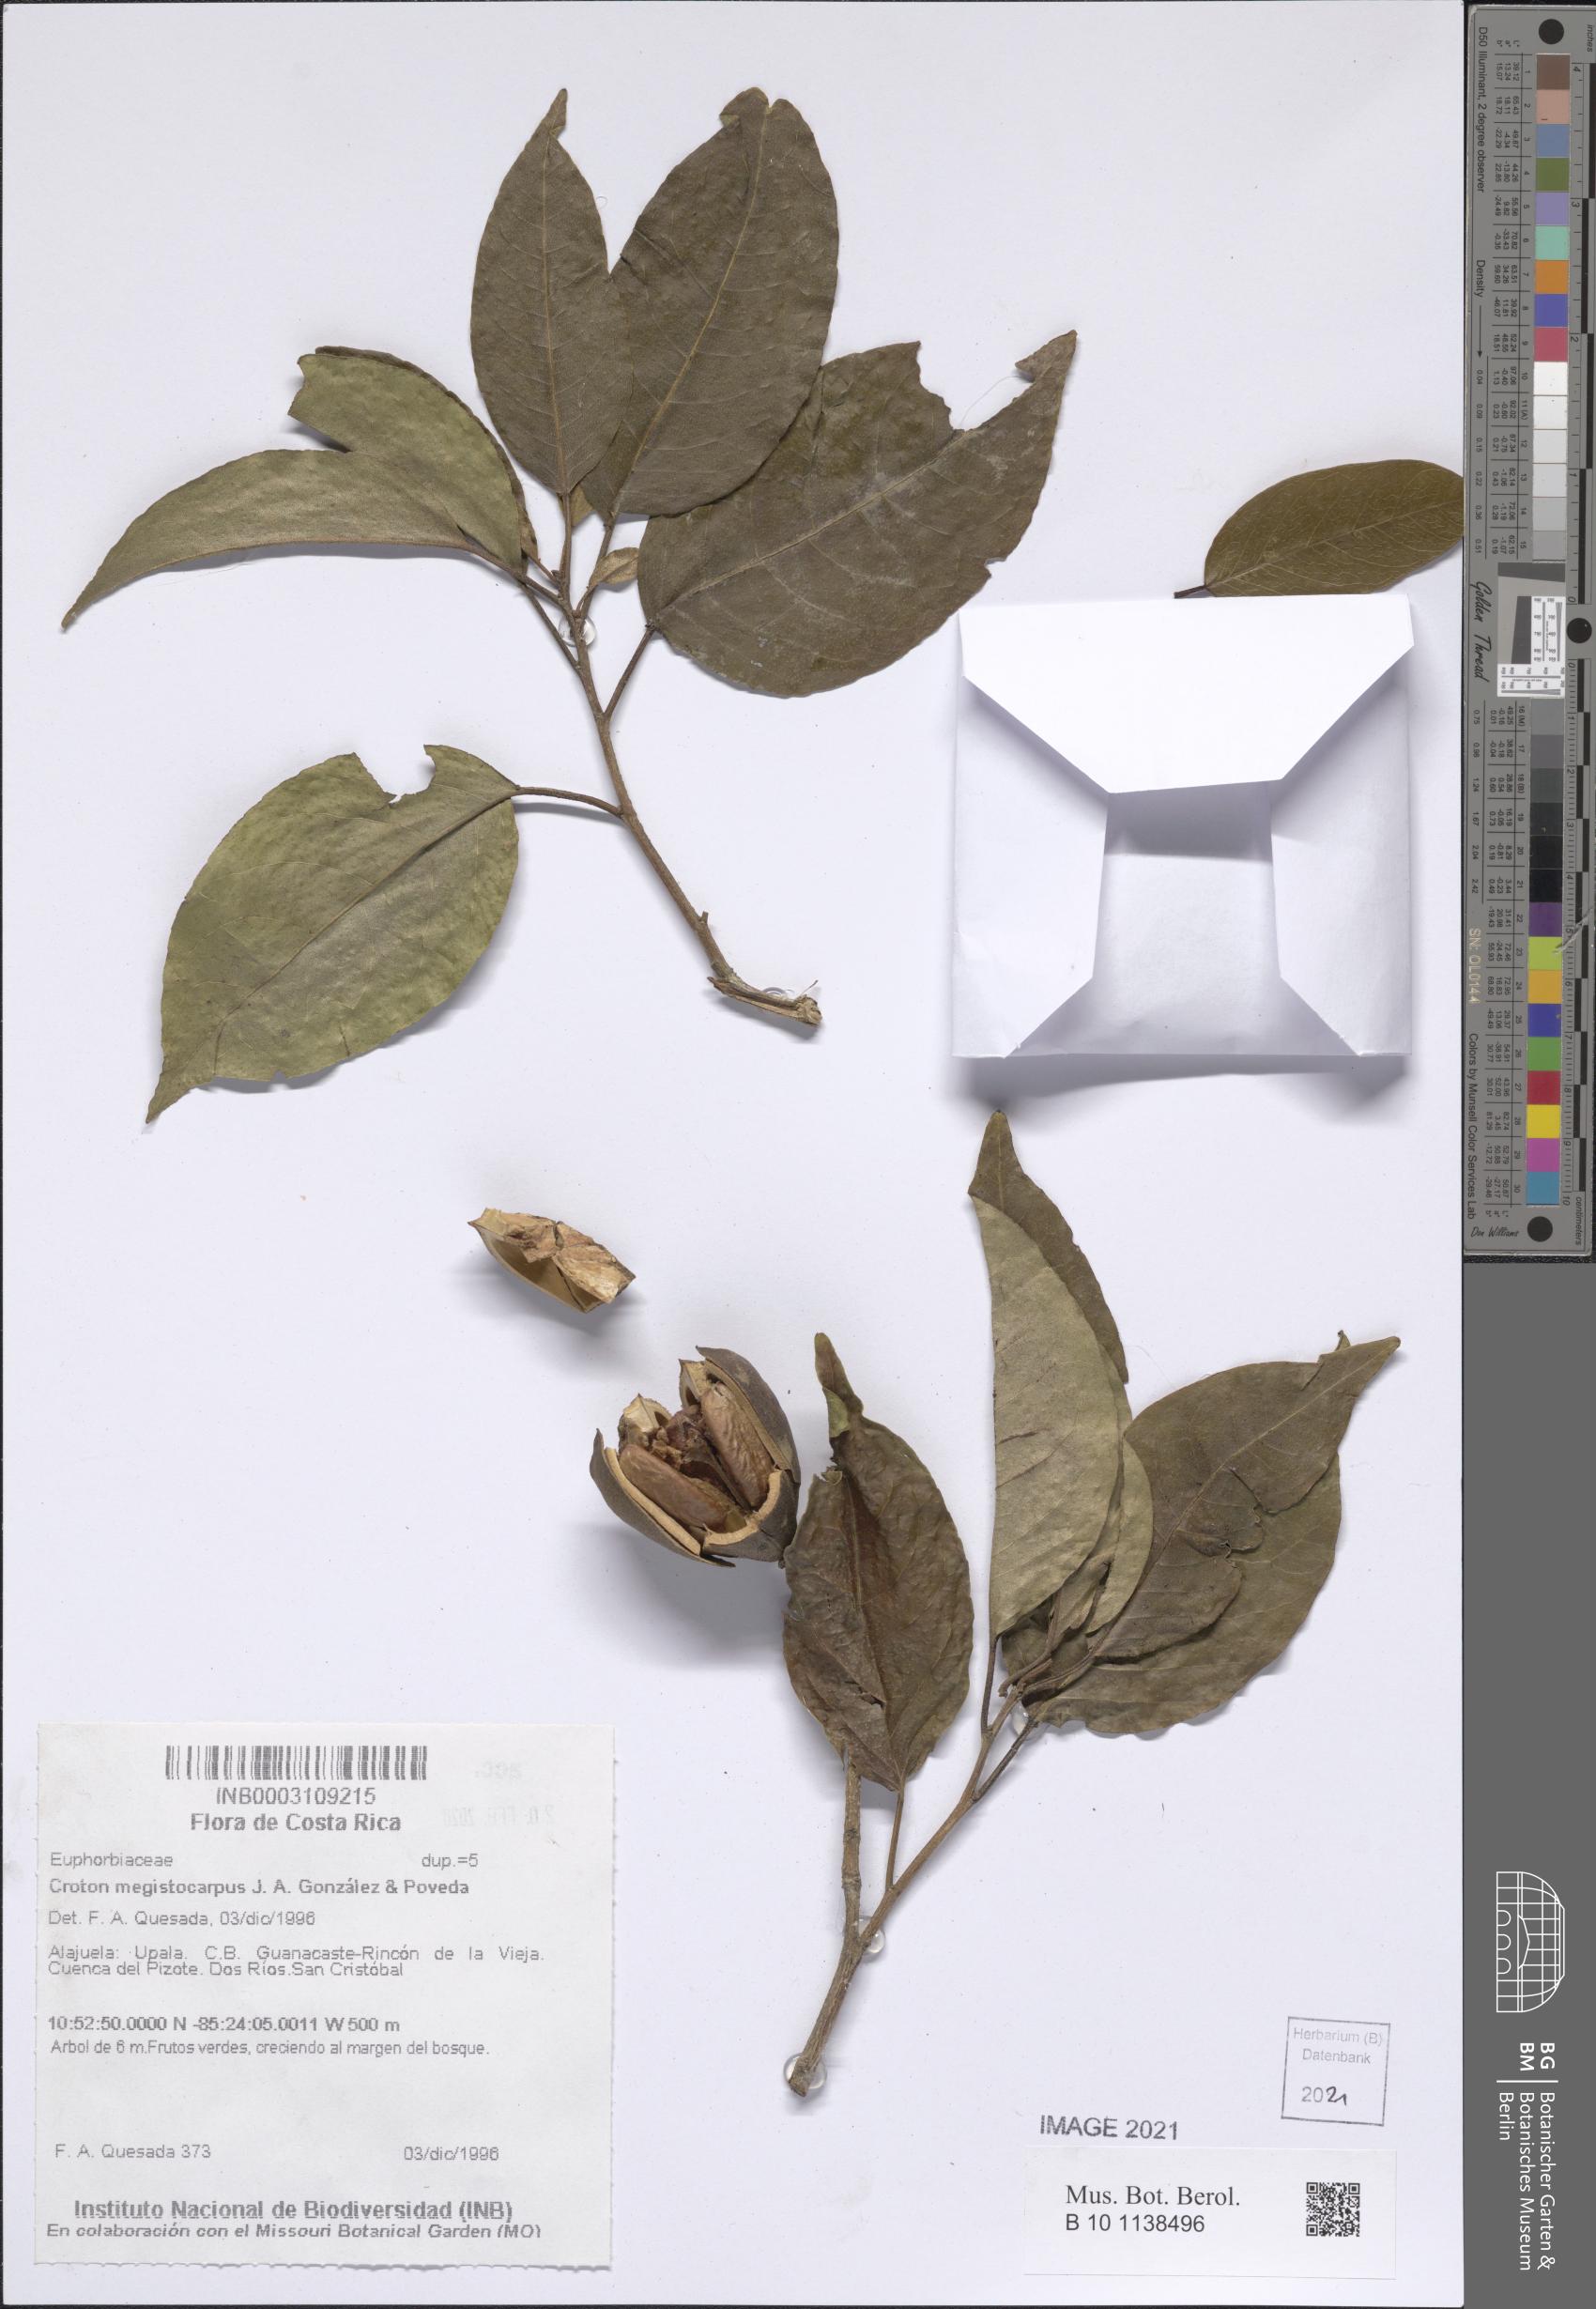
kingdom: Plantae
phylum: Tracheophyta
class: Magnoliopsida
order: Malpighiales
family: Euphorbiaceae
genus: Croton
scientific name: Croton megistocarpus
